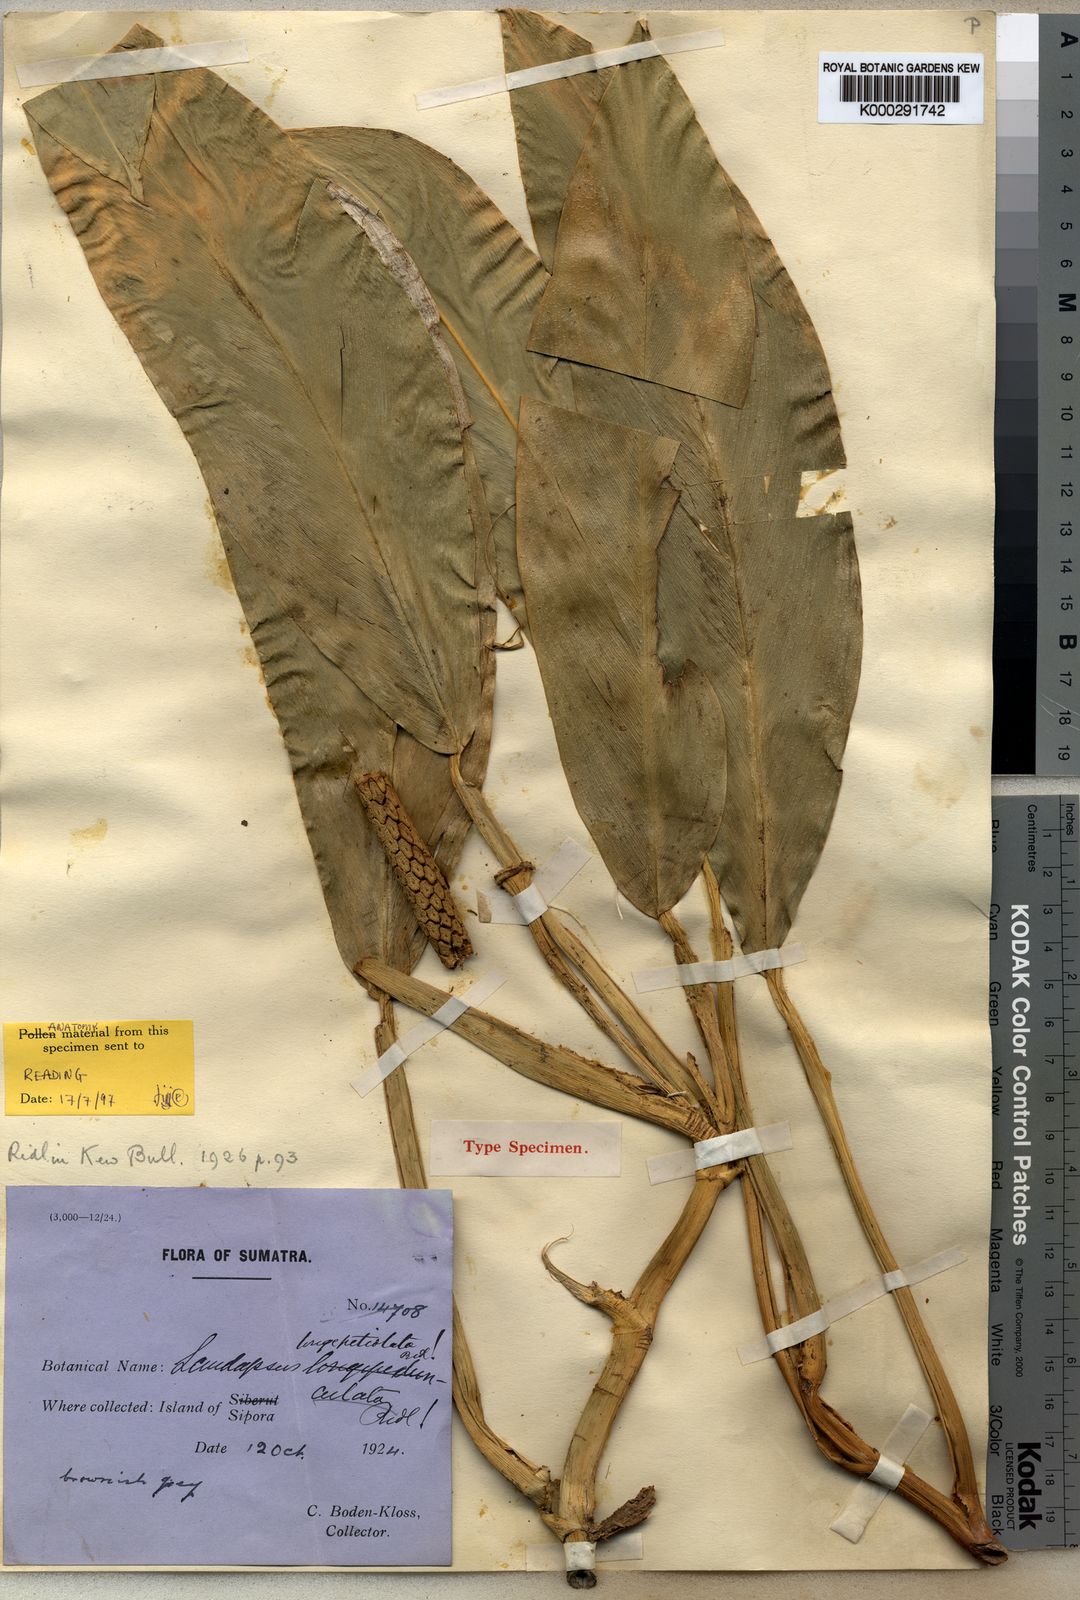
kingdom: Plantae
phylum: Tracheophyta
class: Liliopsida
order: Alismatales
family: Araceae
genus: Scindapsus
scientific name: Scindapsus perakensis
